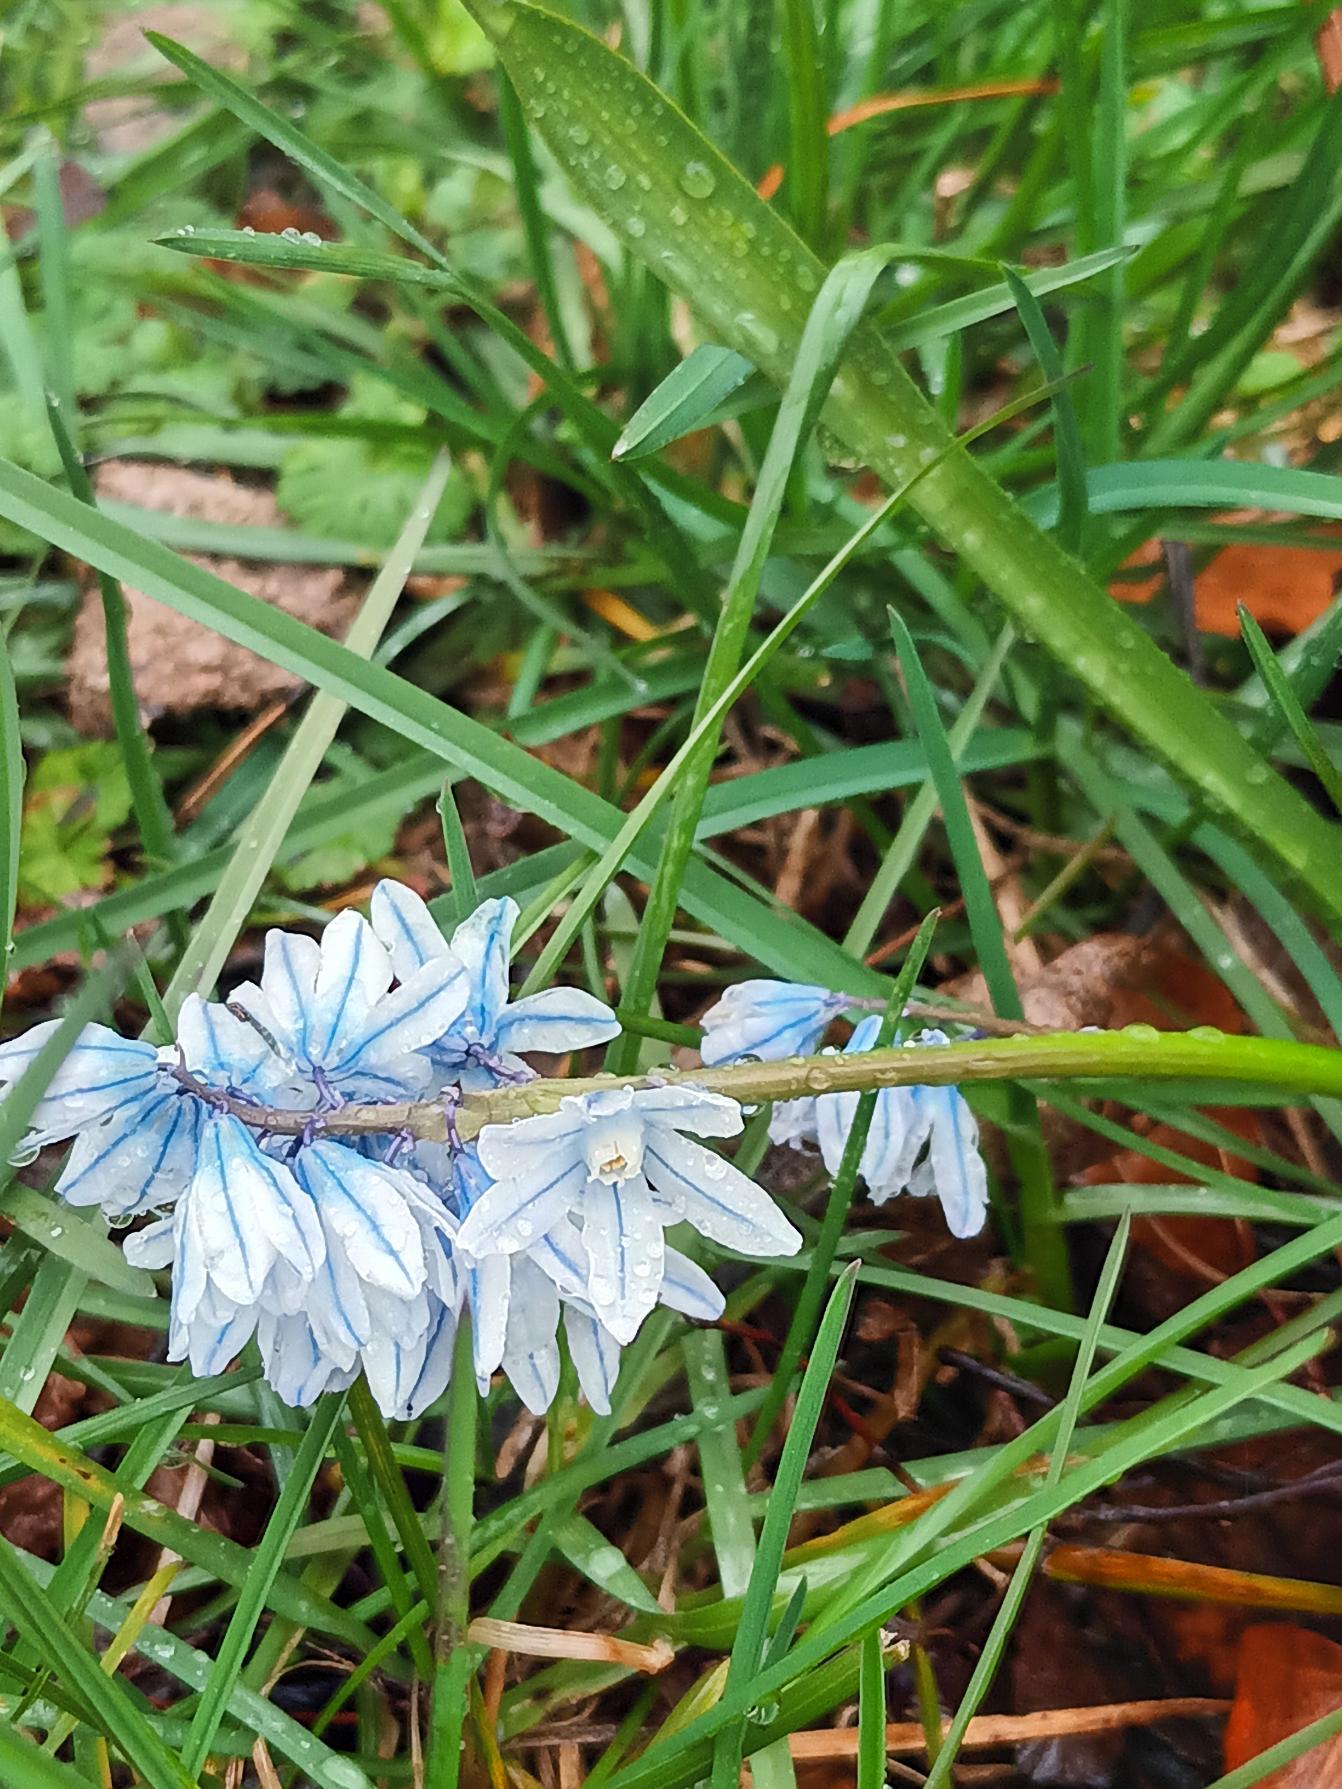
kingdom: Plantae
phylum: Tracheophyta
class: Liliopsida
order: Asparagales
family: Asparagaceae
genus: Puschkinia
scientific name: Puschkinia scilloides
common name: Porcelænshyacint
